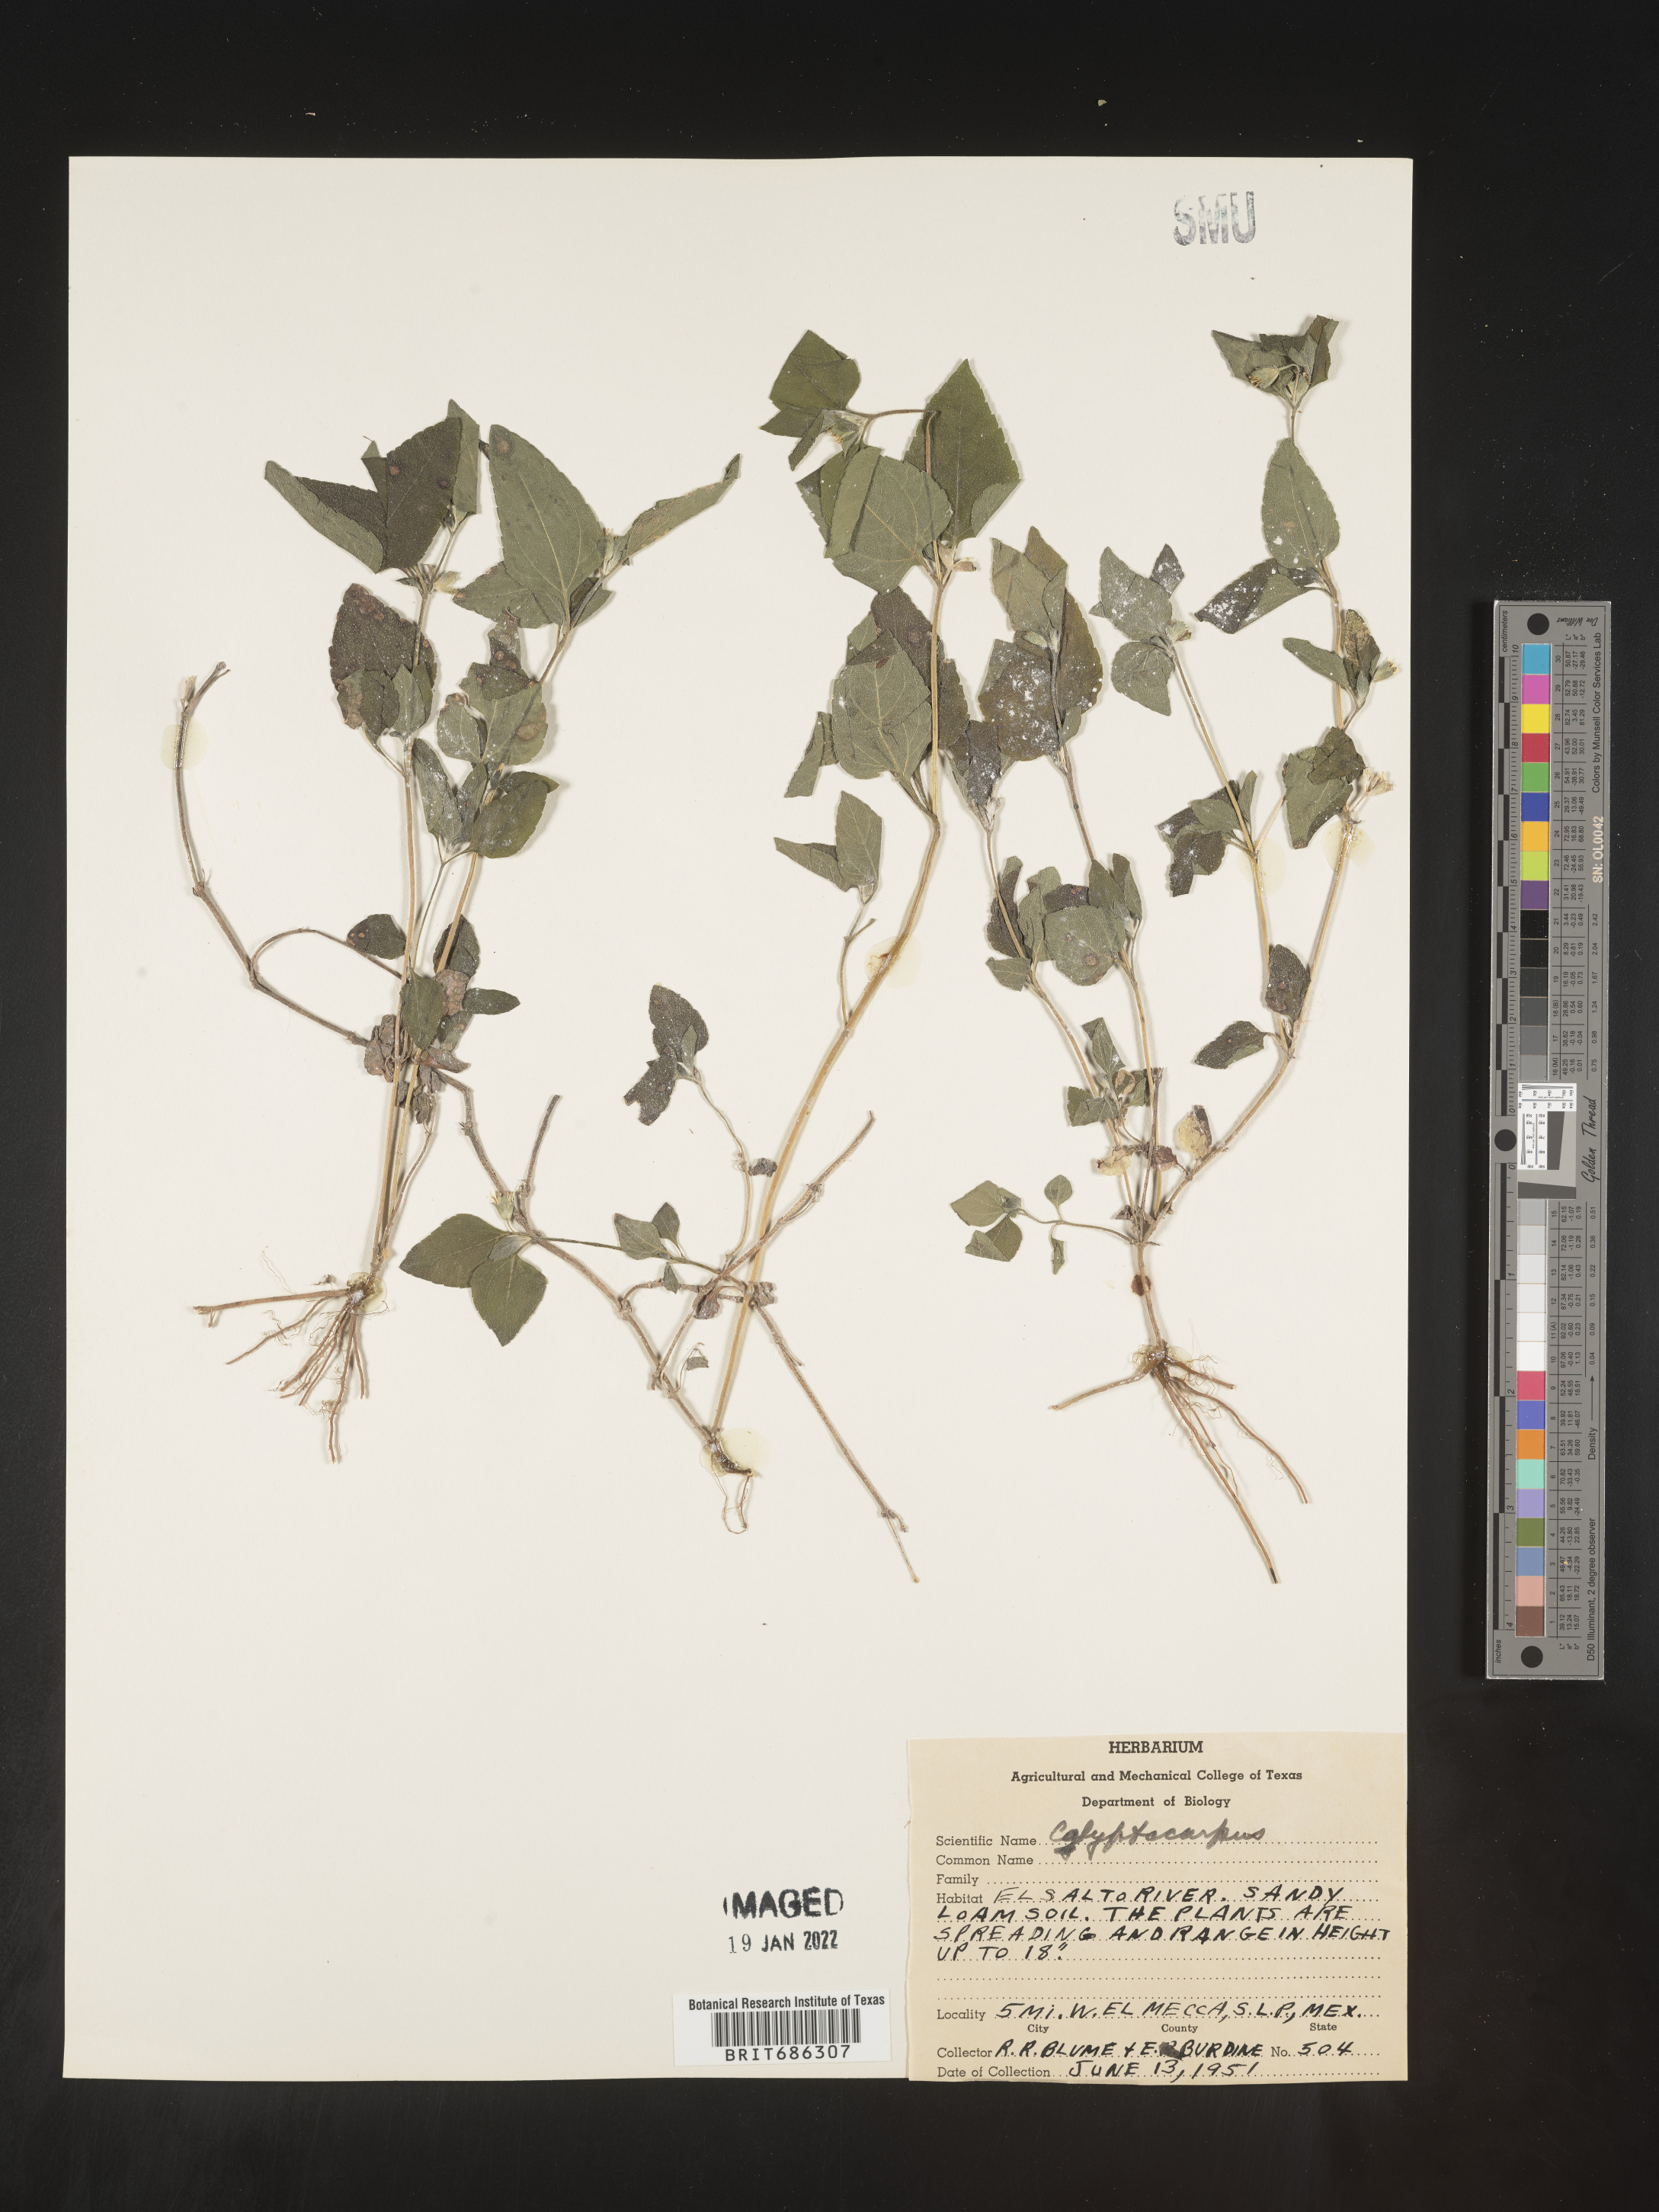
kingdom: Plantae
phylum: Tracheophyta
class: Magnoliopsida
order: Asterales
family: Asteraceae
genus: Calyptocarpus
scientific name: Calyptocarpus
